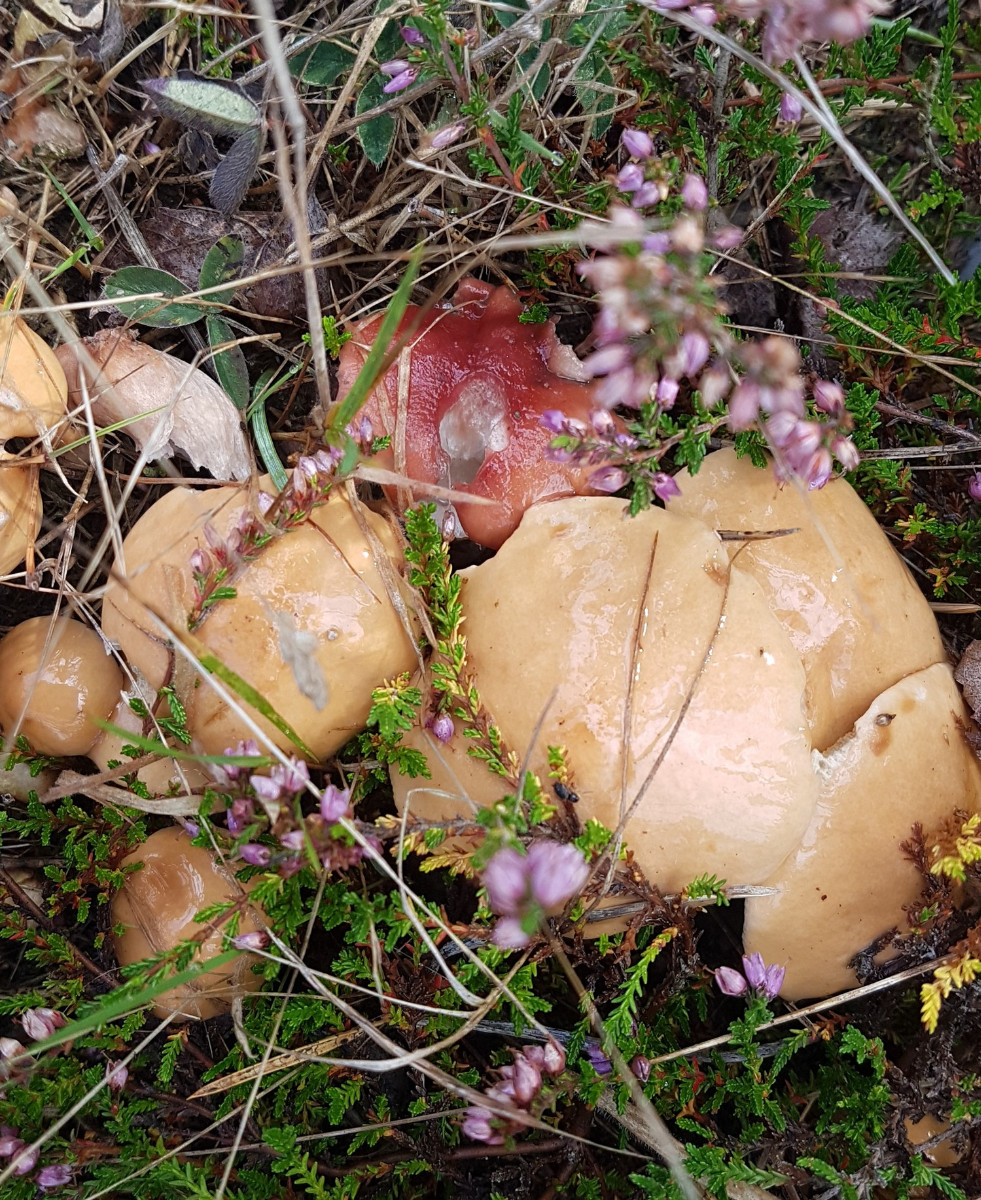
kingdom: Fungi
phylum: Basidiomycota
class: Agaricomycetes
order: Boletales
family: Suillaceae
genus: Suillus
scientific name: Suillus bovinus
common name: grovporet slimrørhat
